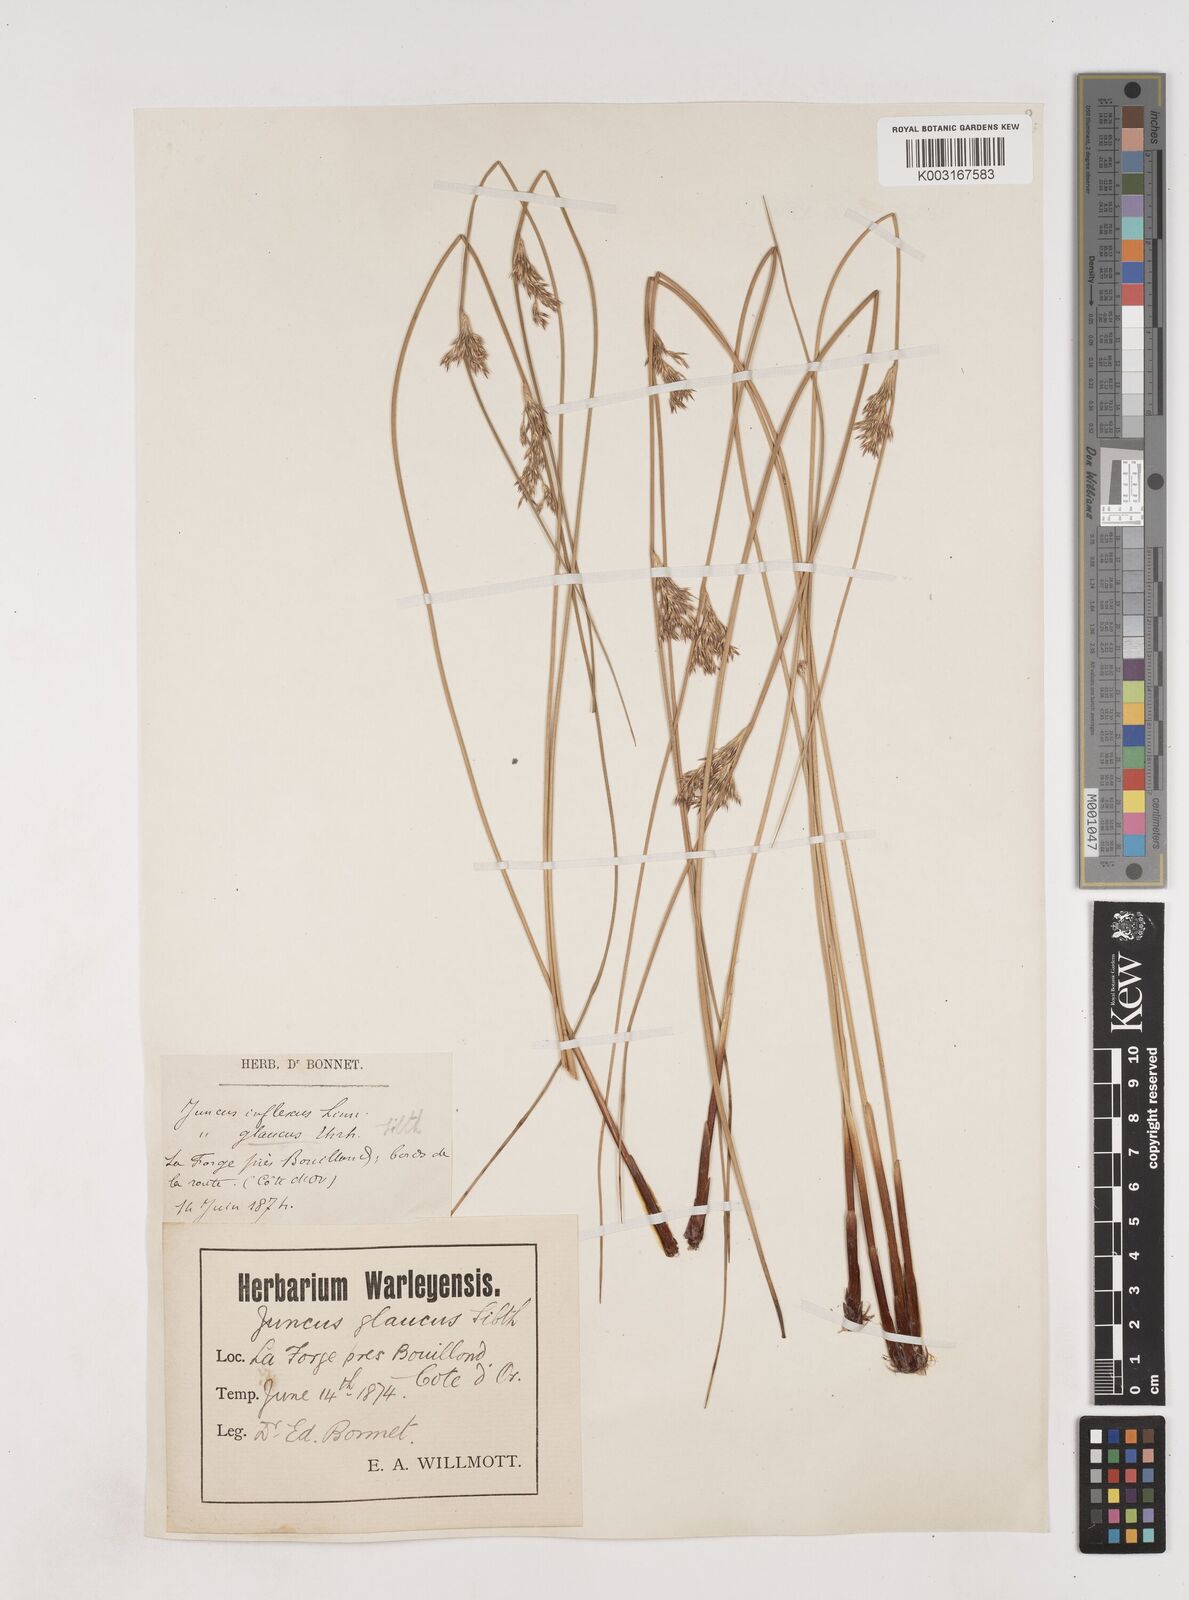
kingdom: Plantae
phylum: Tracheophyta
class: Liliopsida
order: Poales
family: Juncaceae
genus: Juncus
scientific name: Juncus inflexus
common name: Hard rush
